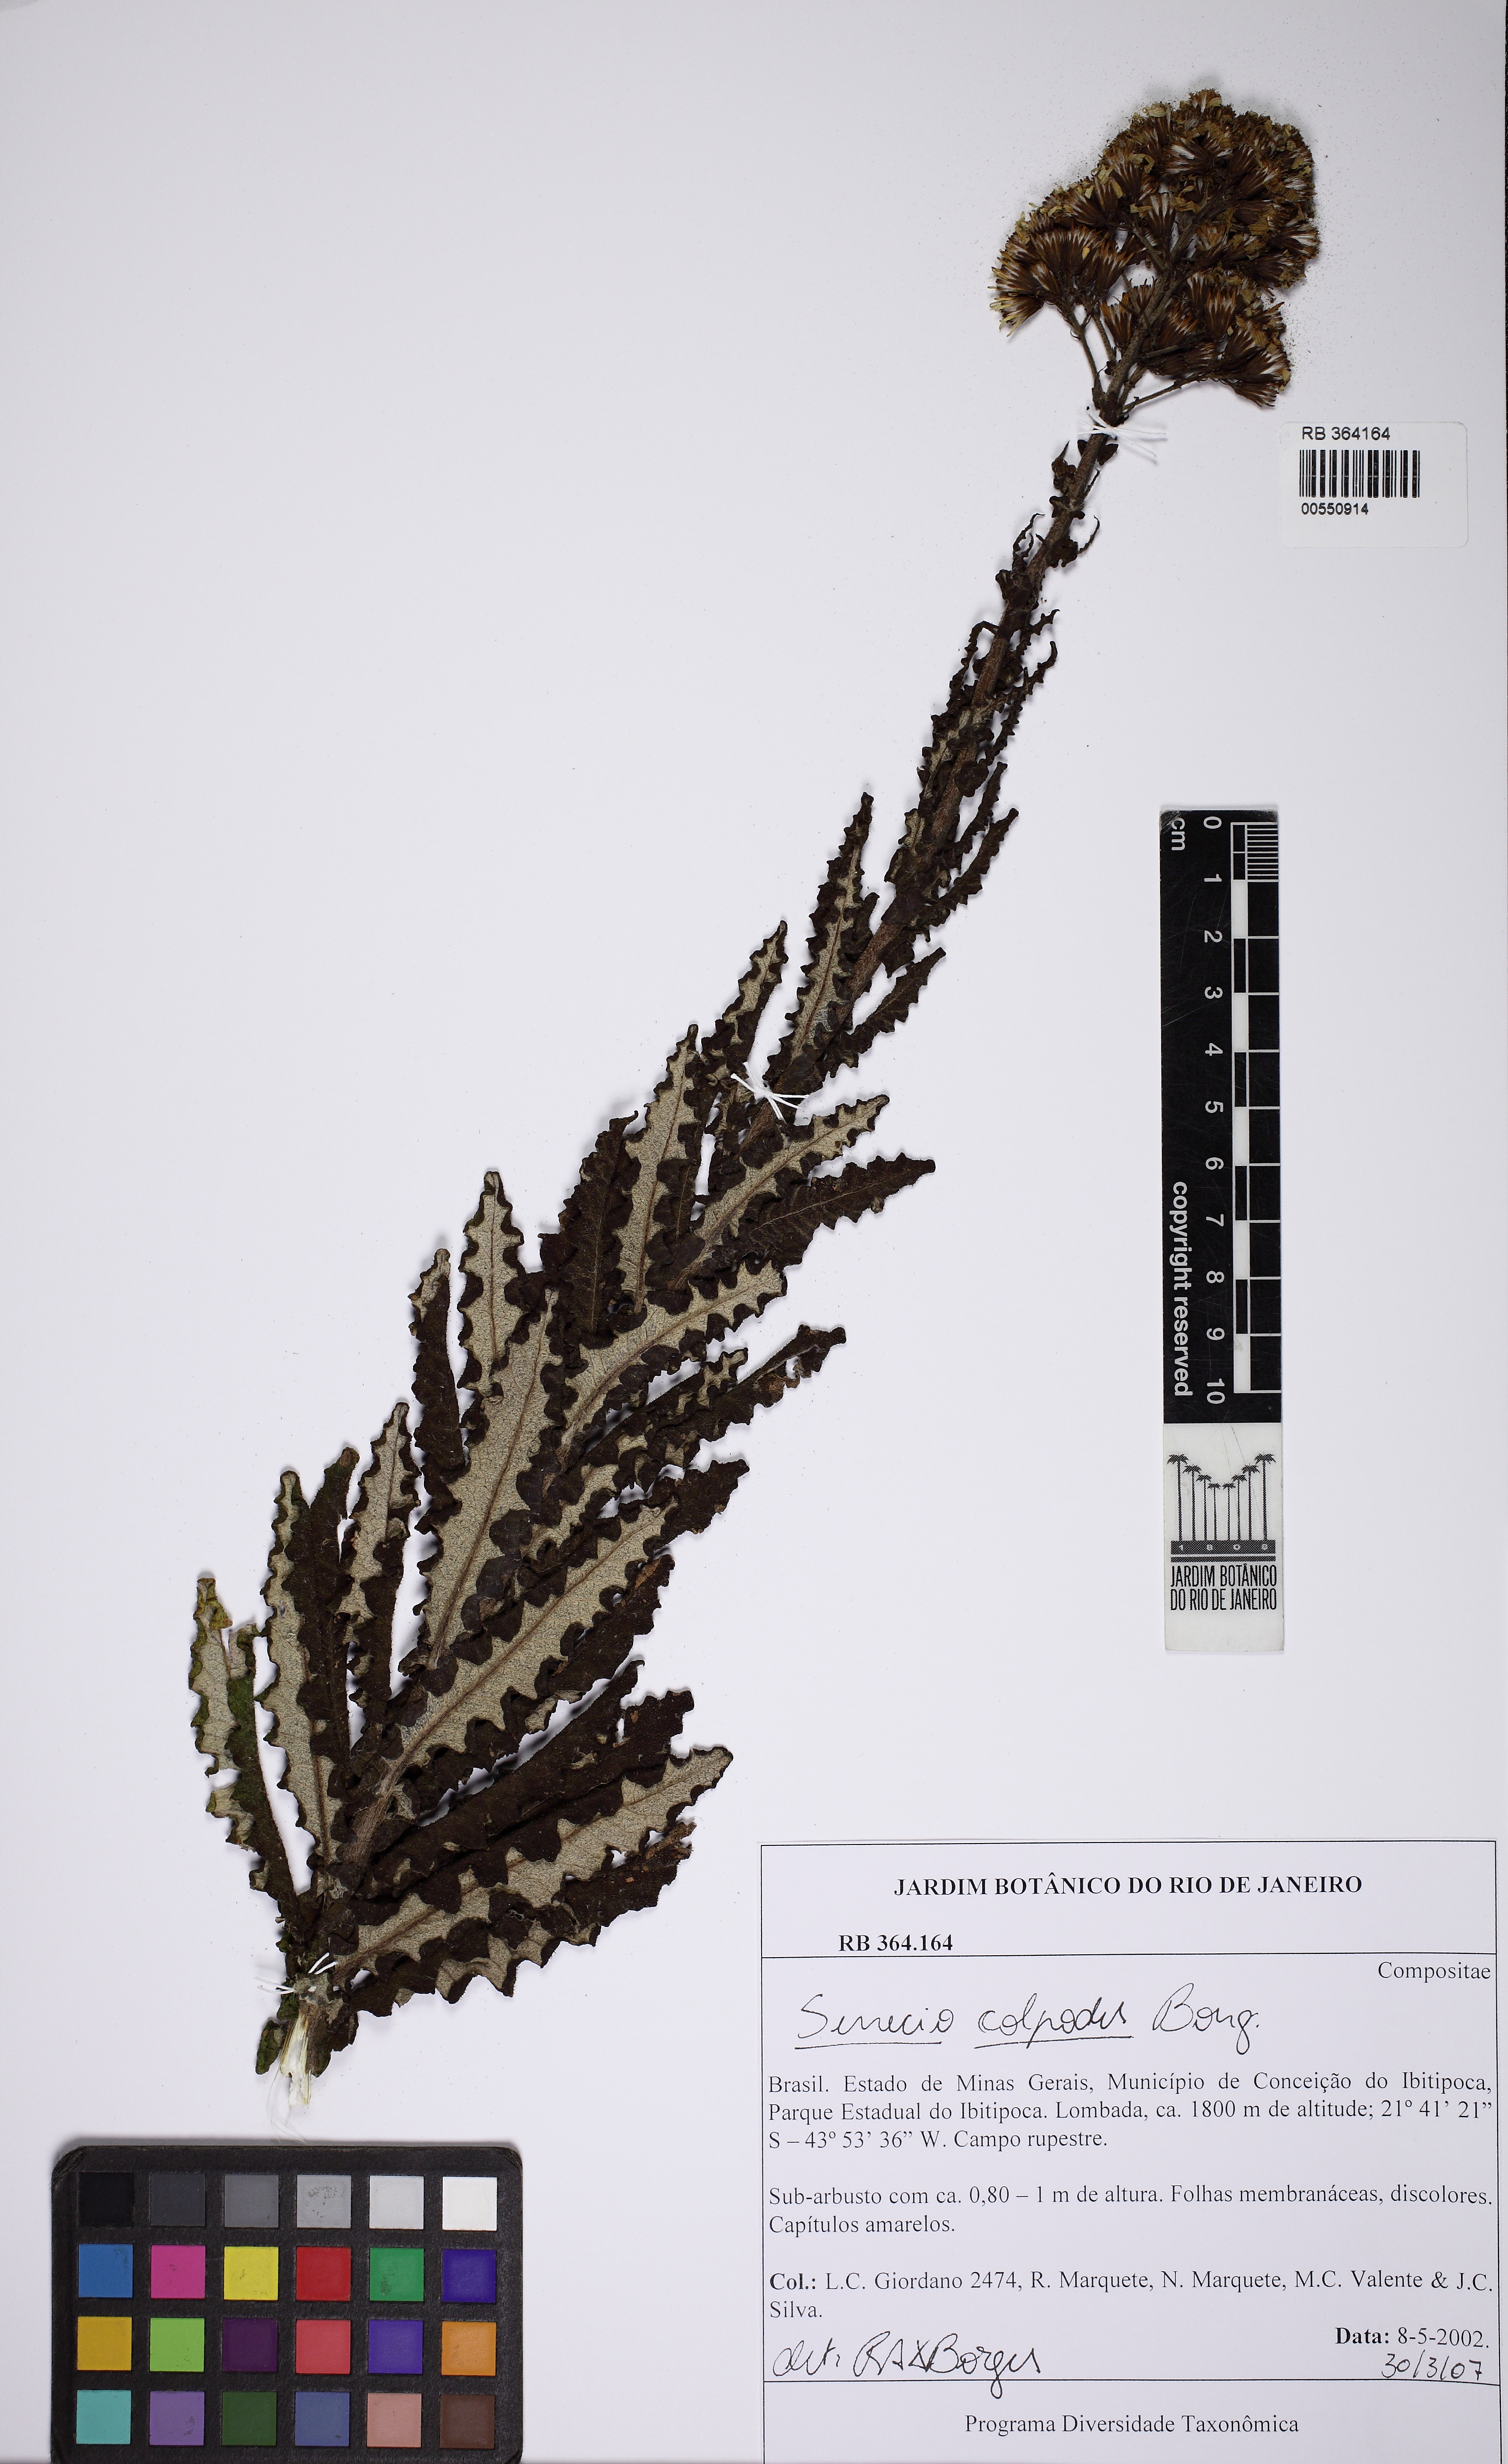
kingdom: Plantae
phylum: Tracheophyta
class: Magnoliopsida
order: Asterales
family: Asteraceae
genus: Senecio
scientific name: Senecio colpodes
